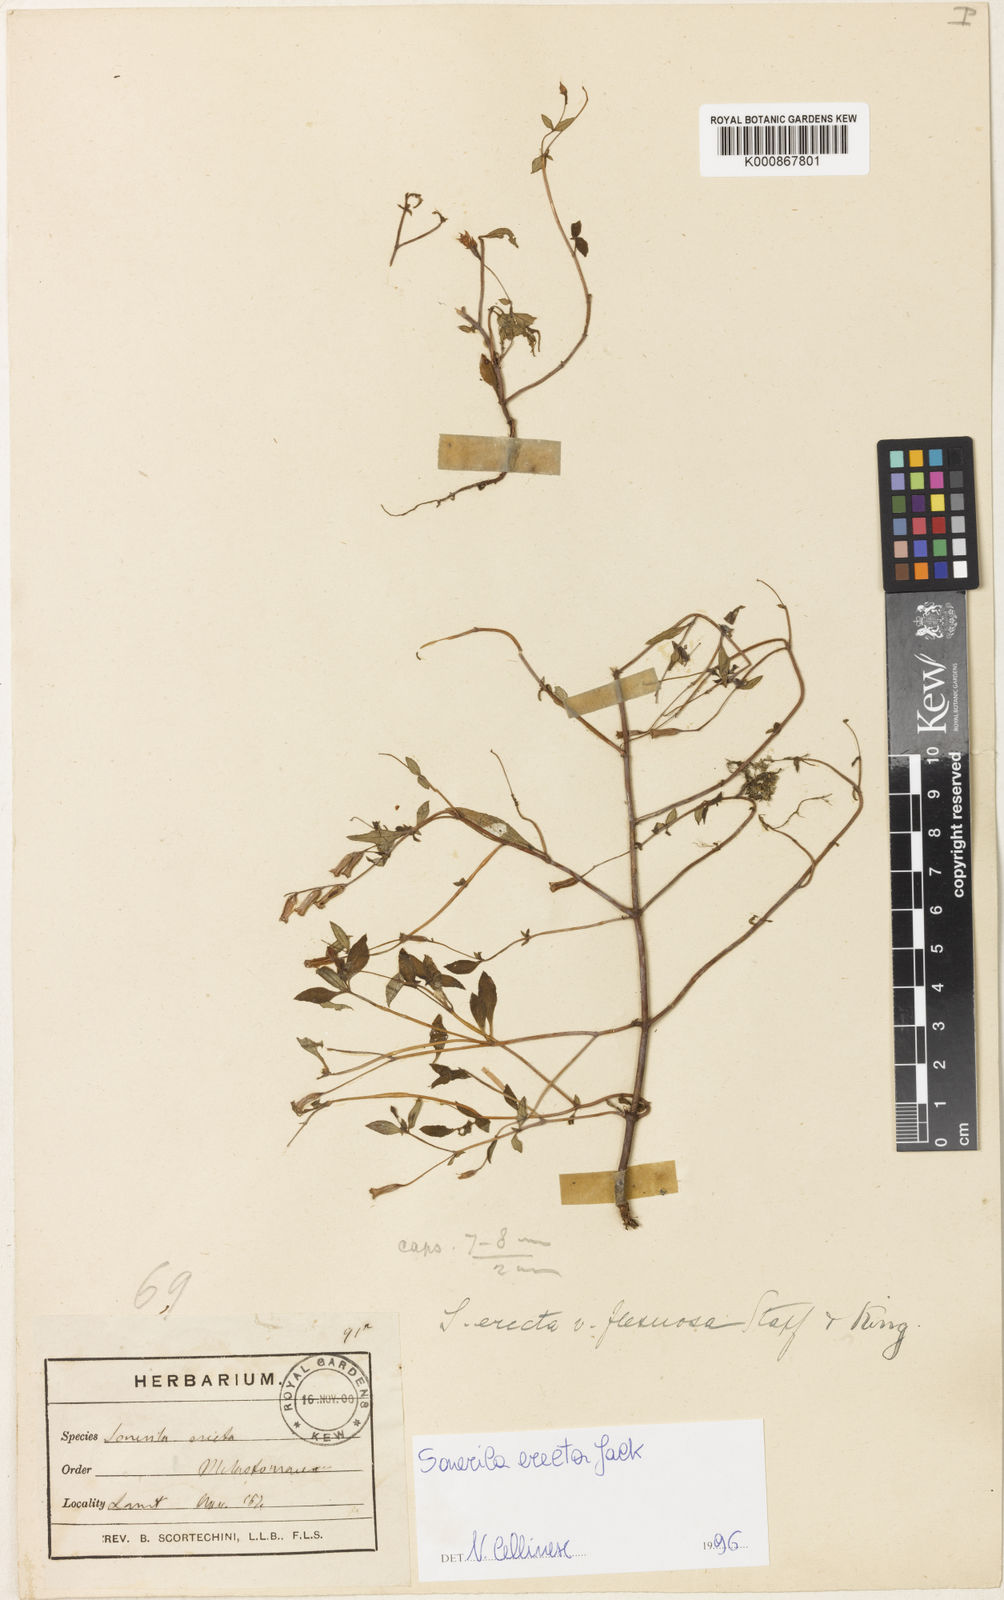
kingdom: Plantae
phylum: Tracheophyta
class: Magnoliopsida
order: Myrtales
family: Melastomataceae
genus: Sonerila
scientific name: Sonerila erecta
